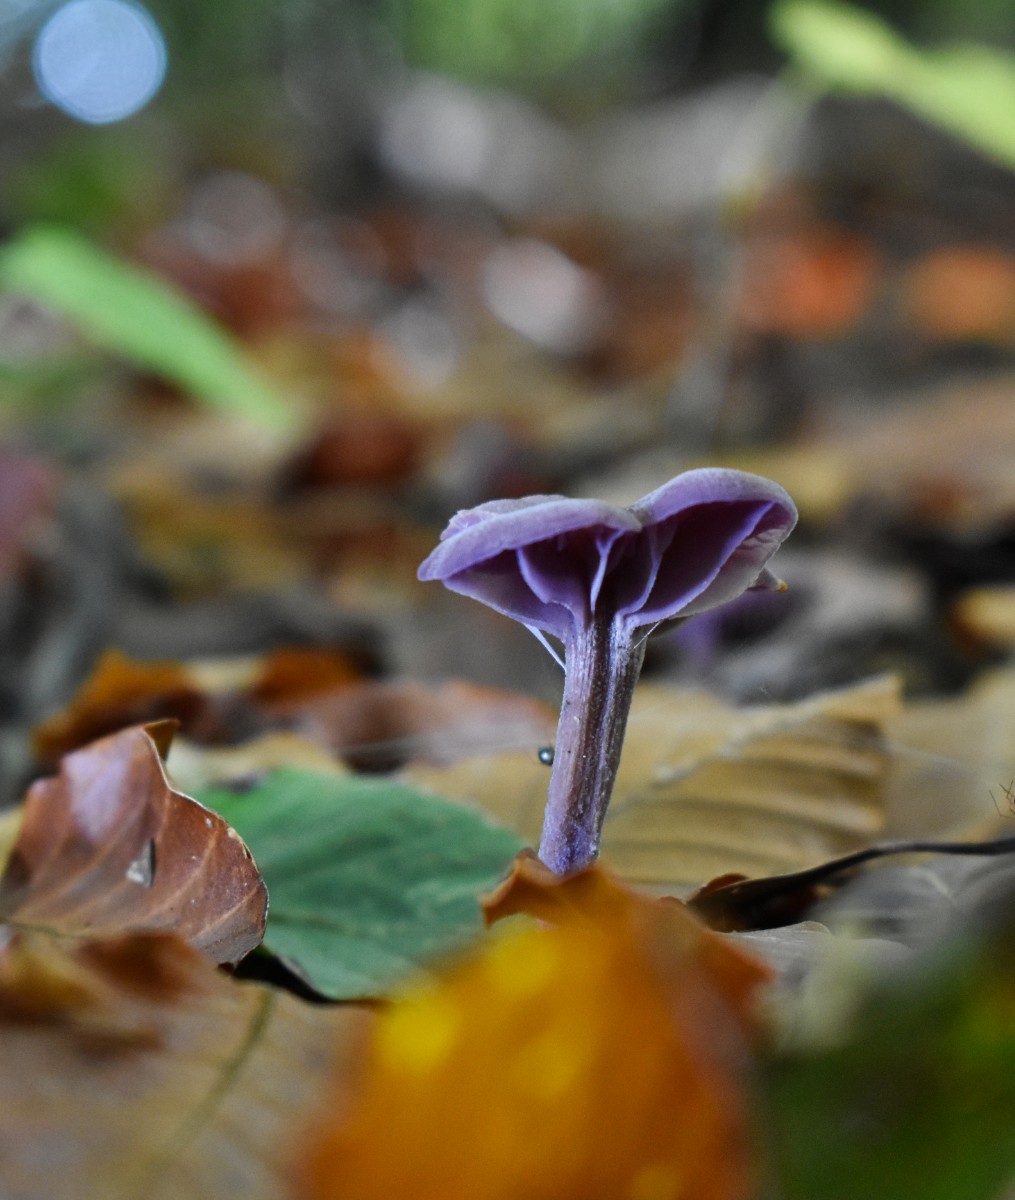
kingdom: Fungi
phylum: Basidiomycota
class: Agaricomycetes
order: Agaricales
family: Hydnangiaceae
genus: Laccaria
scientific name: Laccaria amethystina
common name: violet ametysthat
